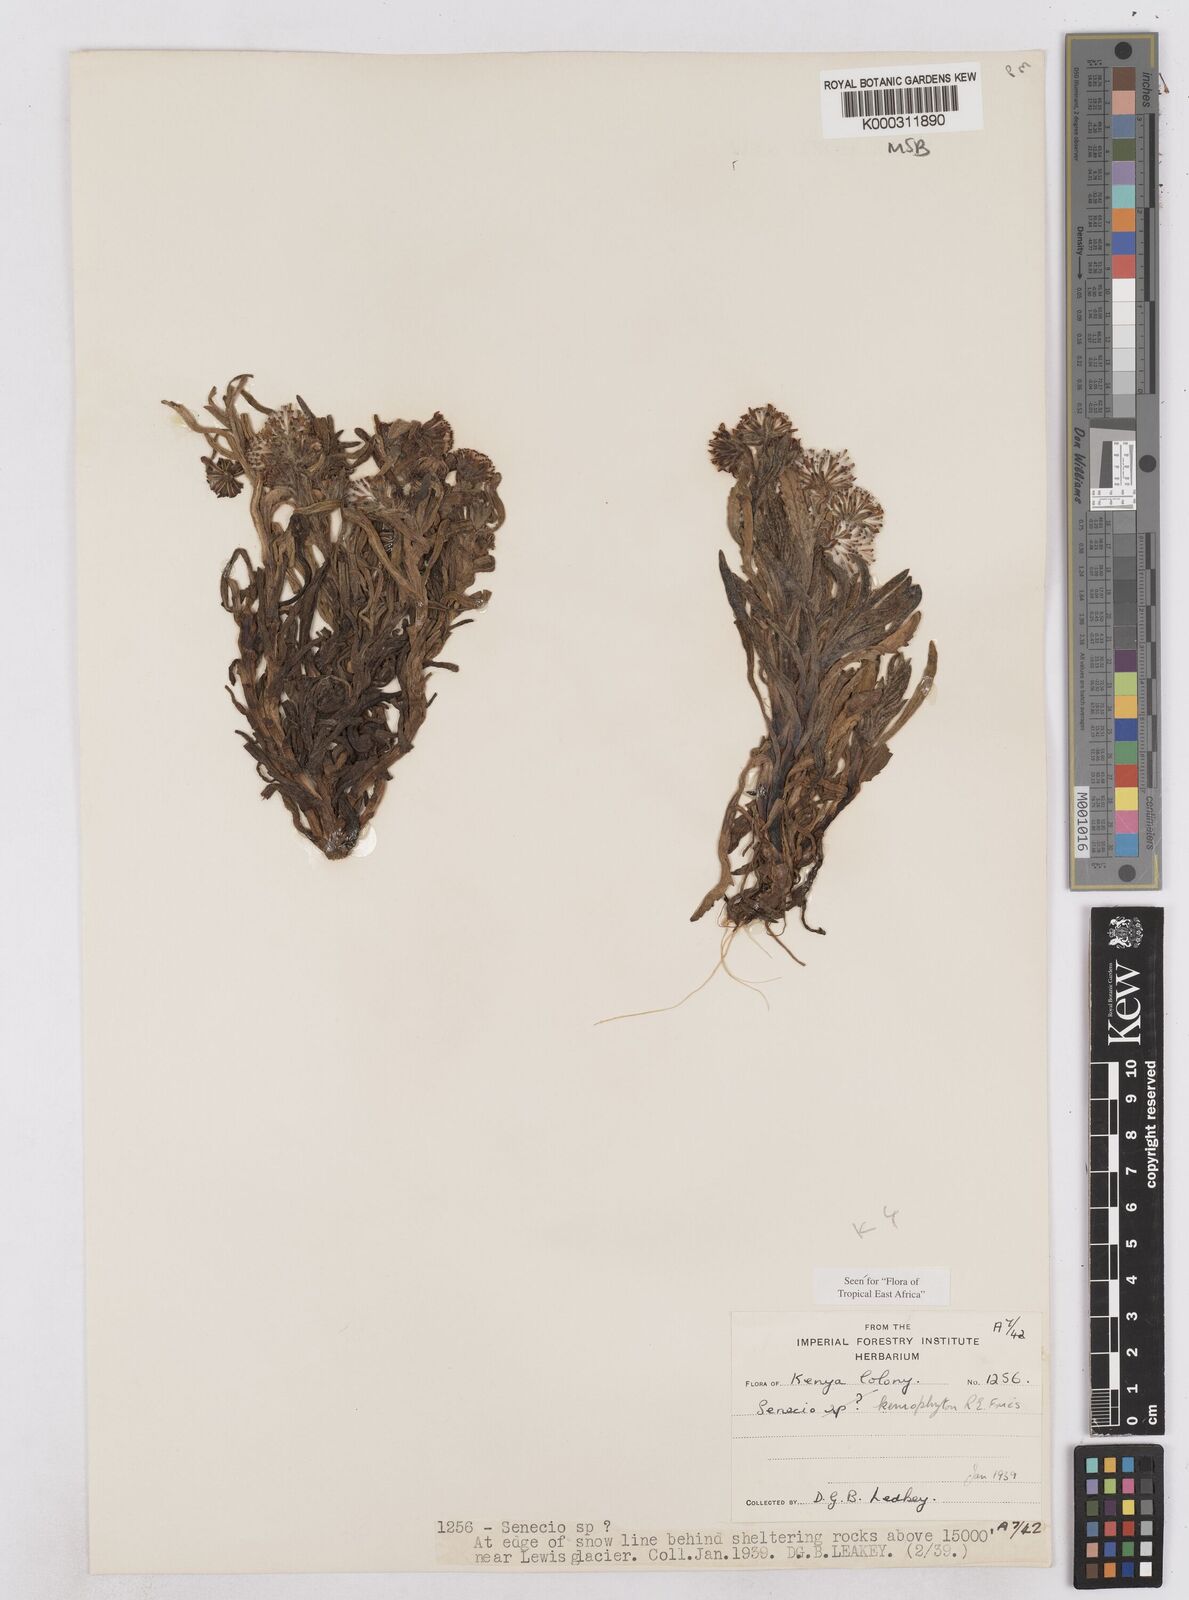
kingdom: Plantae
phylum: Tracheophyta
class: Magnoliopsida
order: Asterales
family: Asteraceae
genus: Senecio
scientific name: Senecio keniophytum
